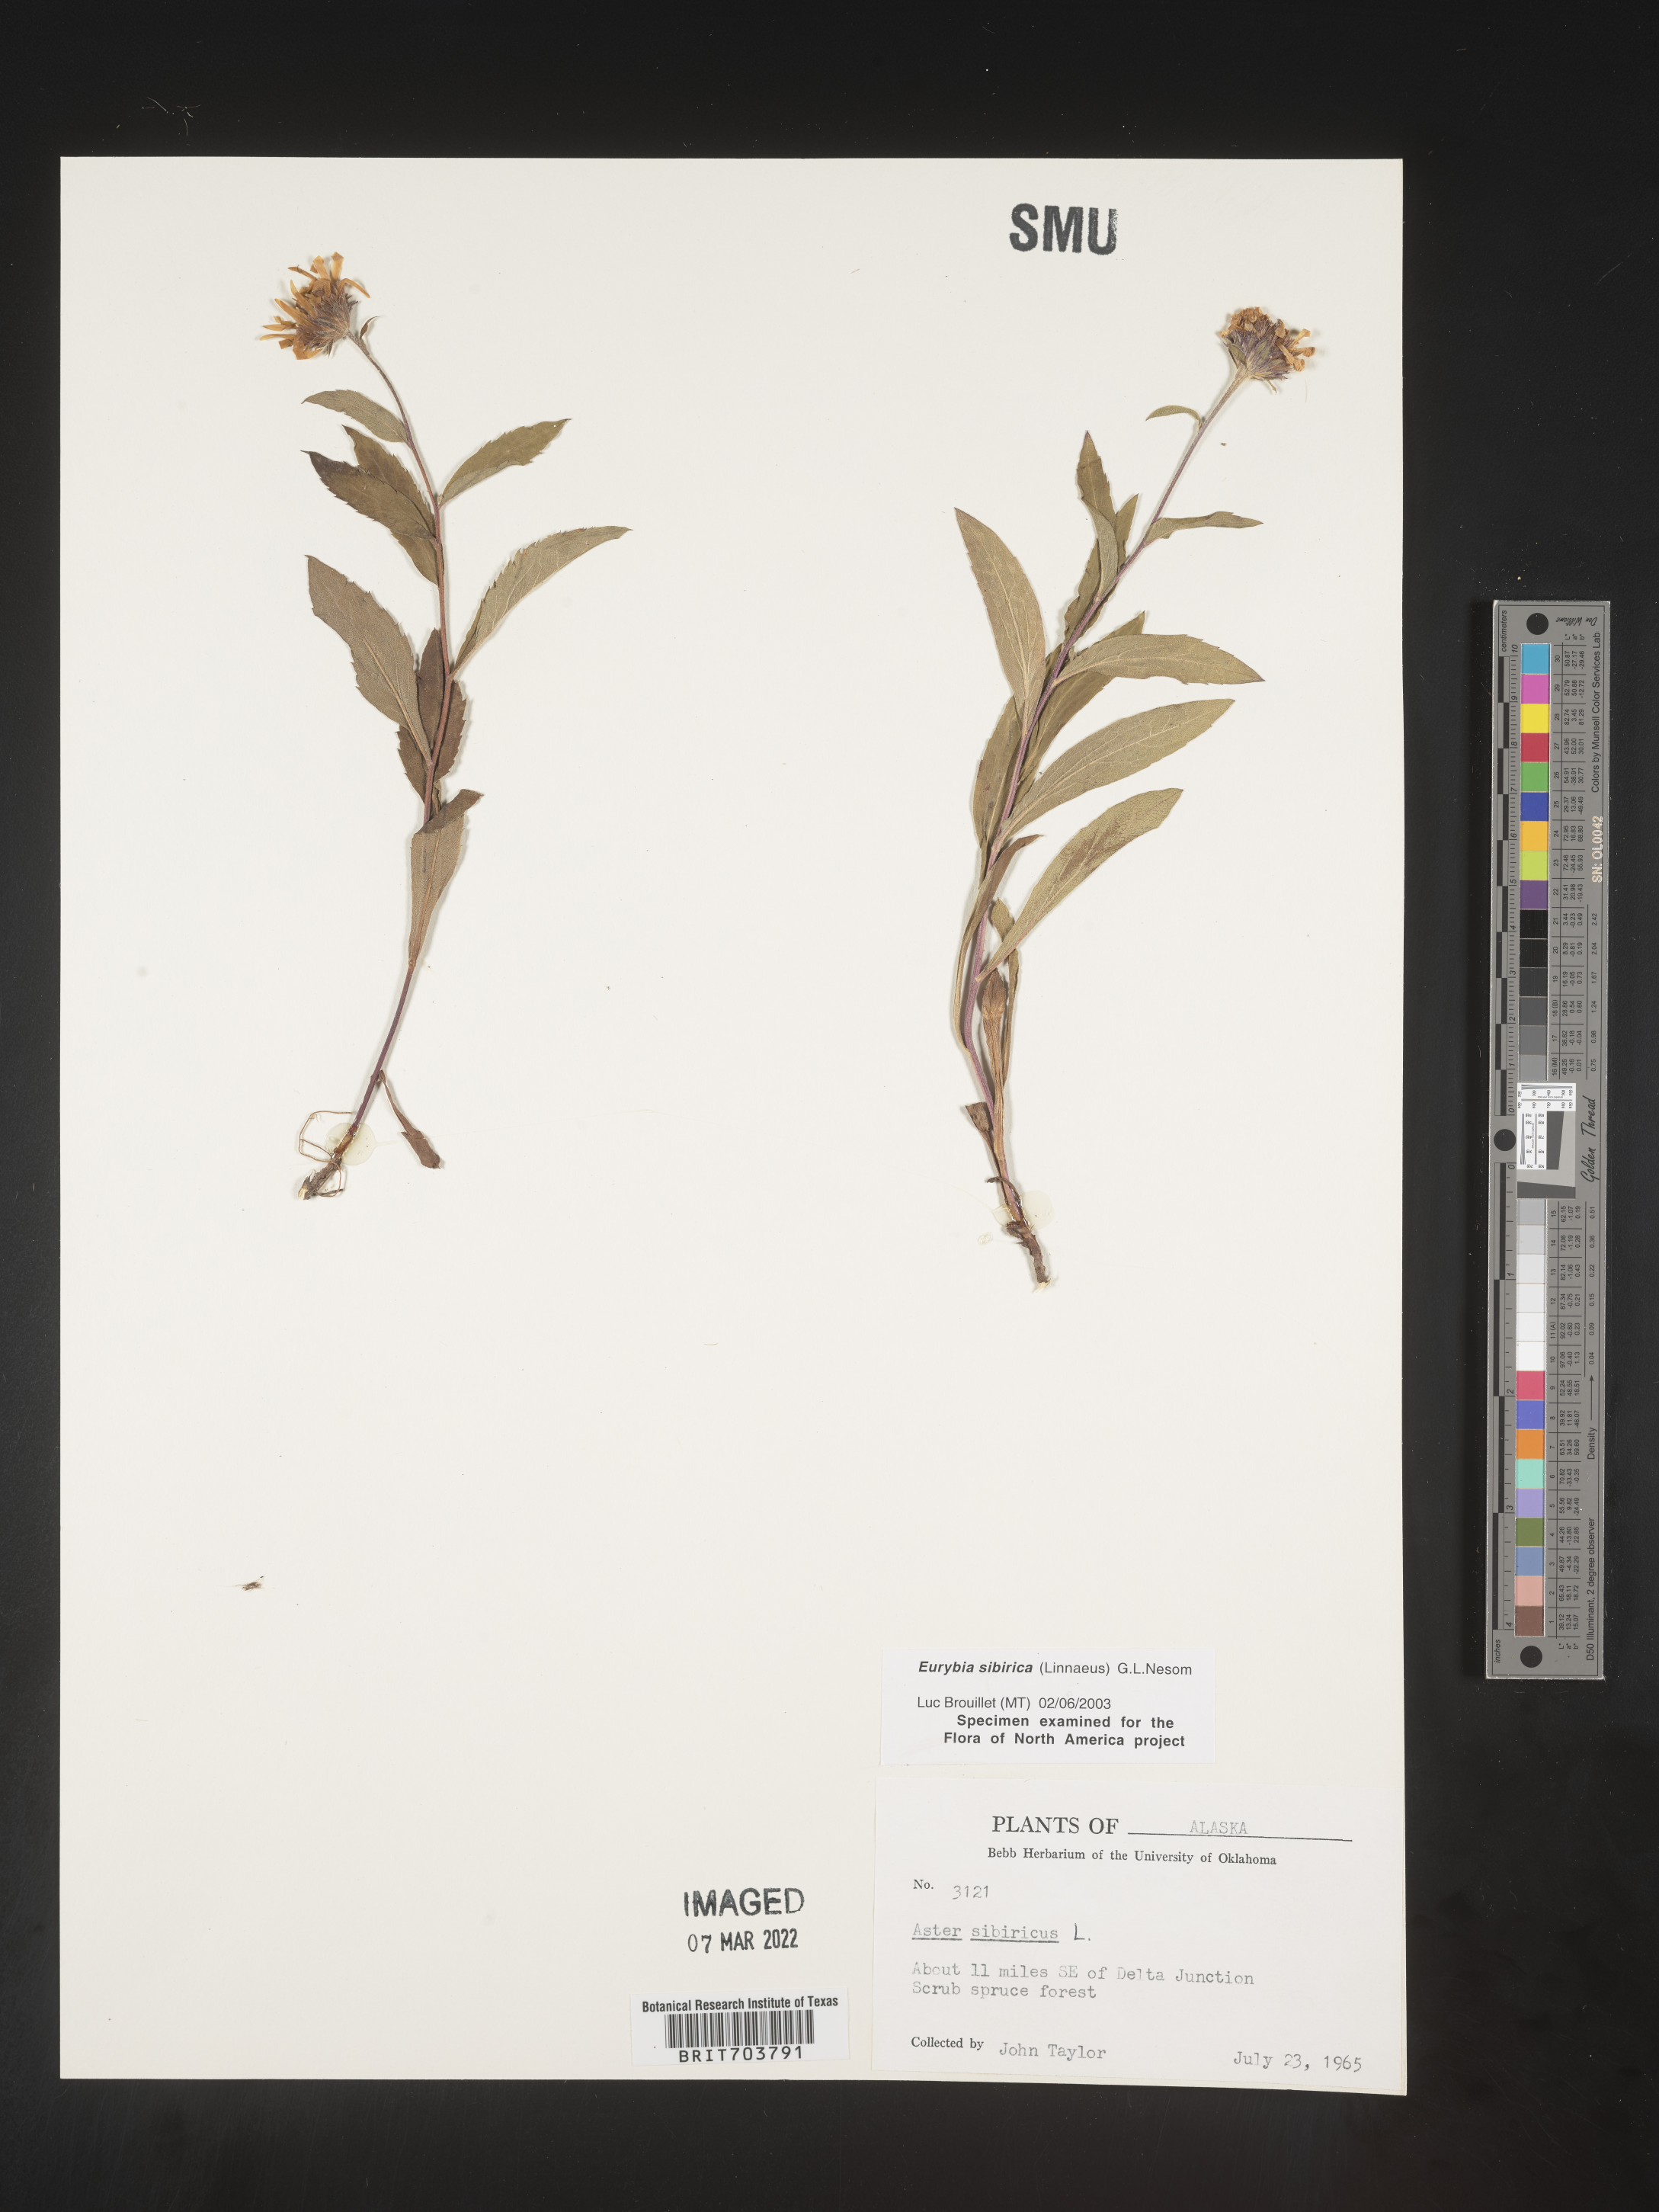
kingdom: Plantae
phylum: Tracheophyta
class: Magnoliopsida
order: Asterales
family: Asteraceae
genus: Eurybia
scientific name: Eurybia sibirica
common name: Arctic aster
